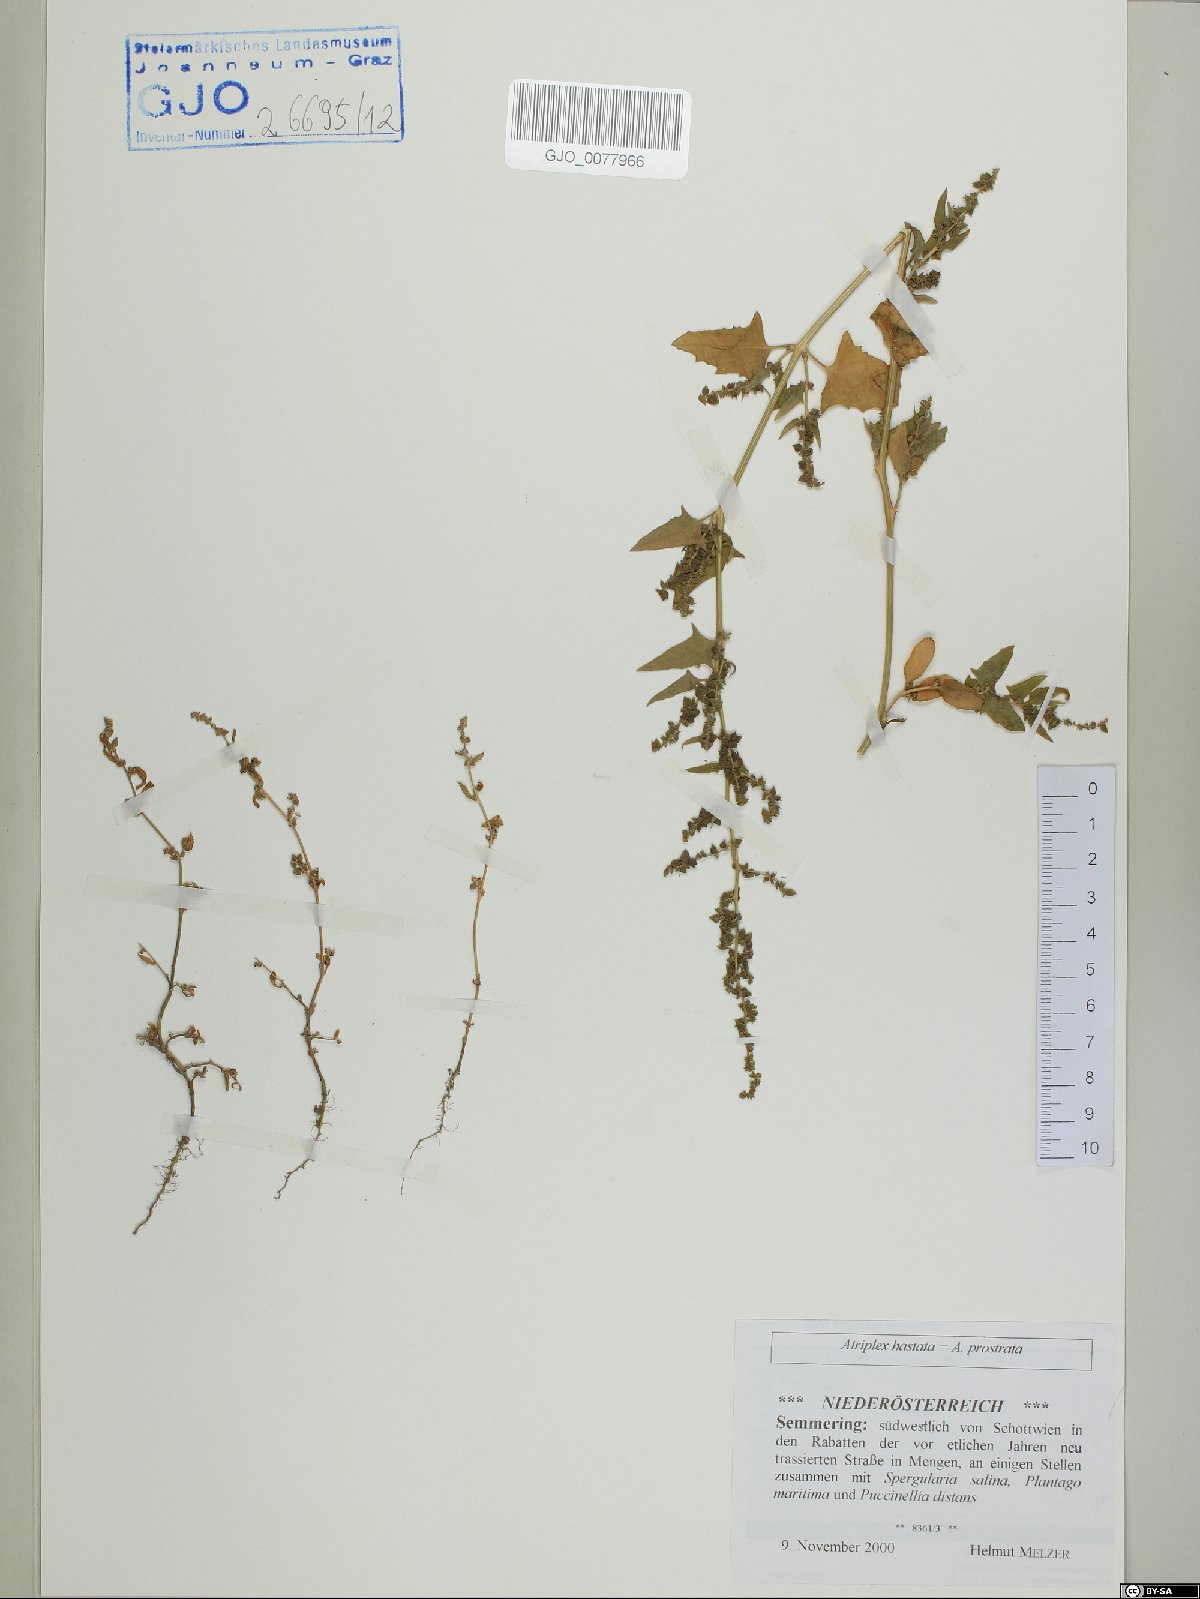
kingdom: Plantae
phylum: Tracheophyta
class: Magnoliopsida
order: Caryophyllales
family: Amaranthaceae
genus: Atriplex
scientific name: Atriplex calotheca
